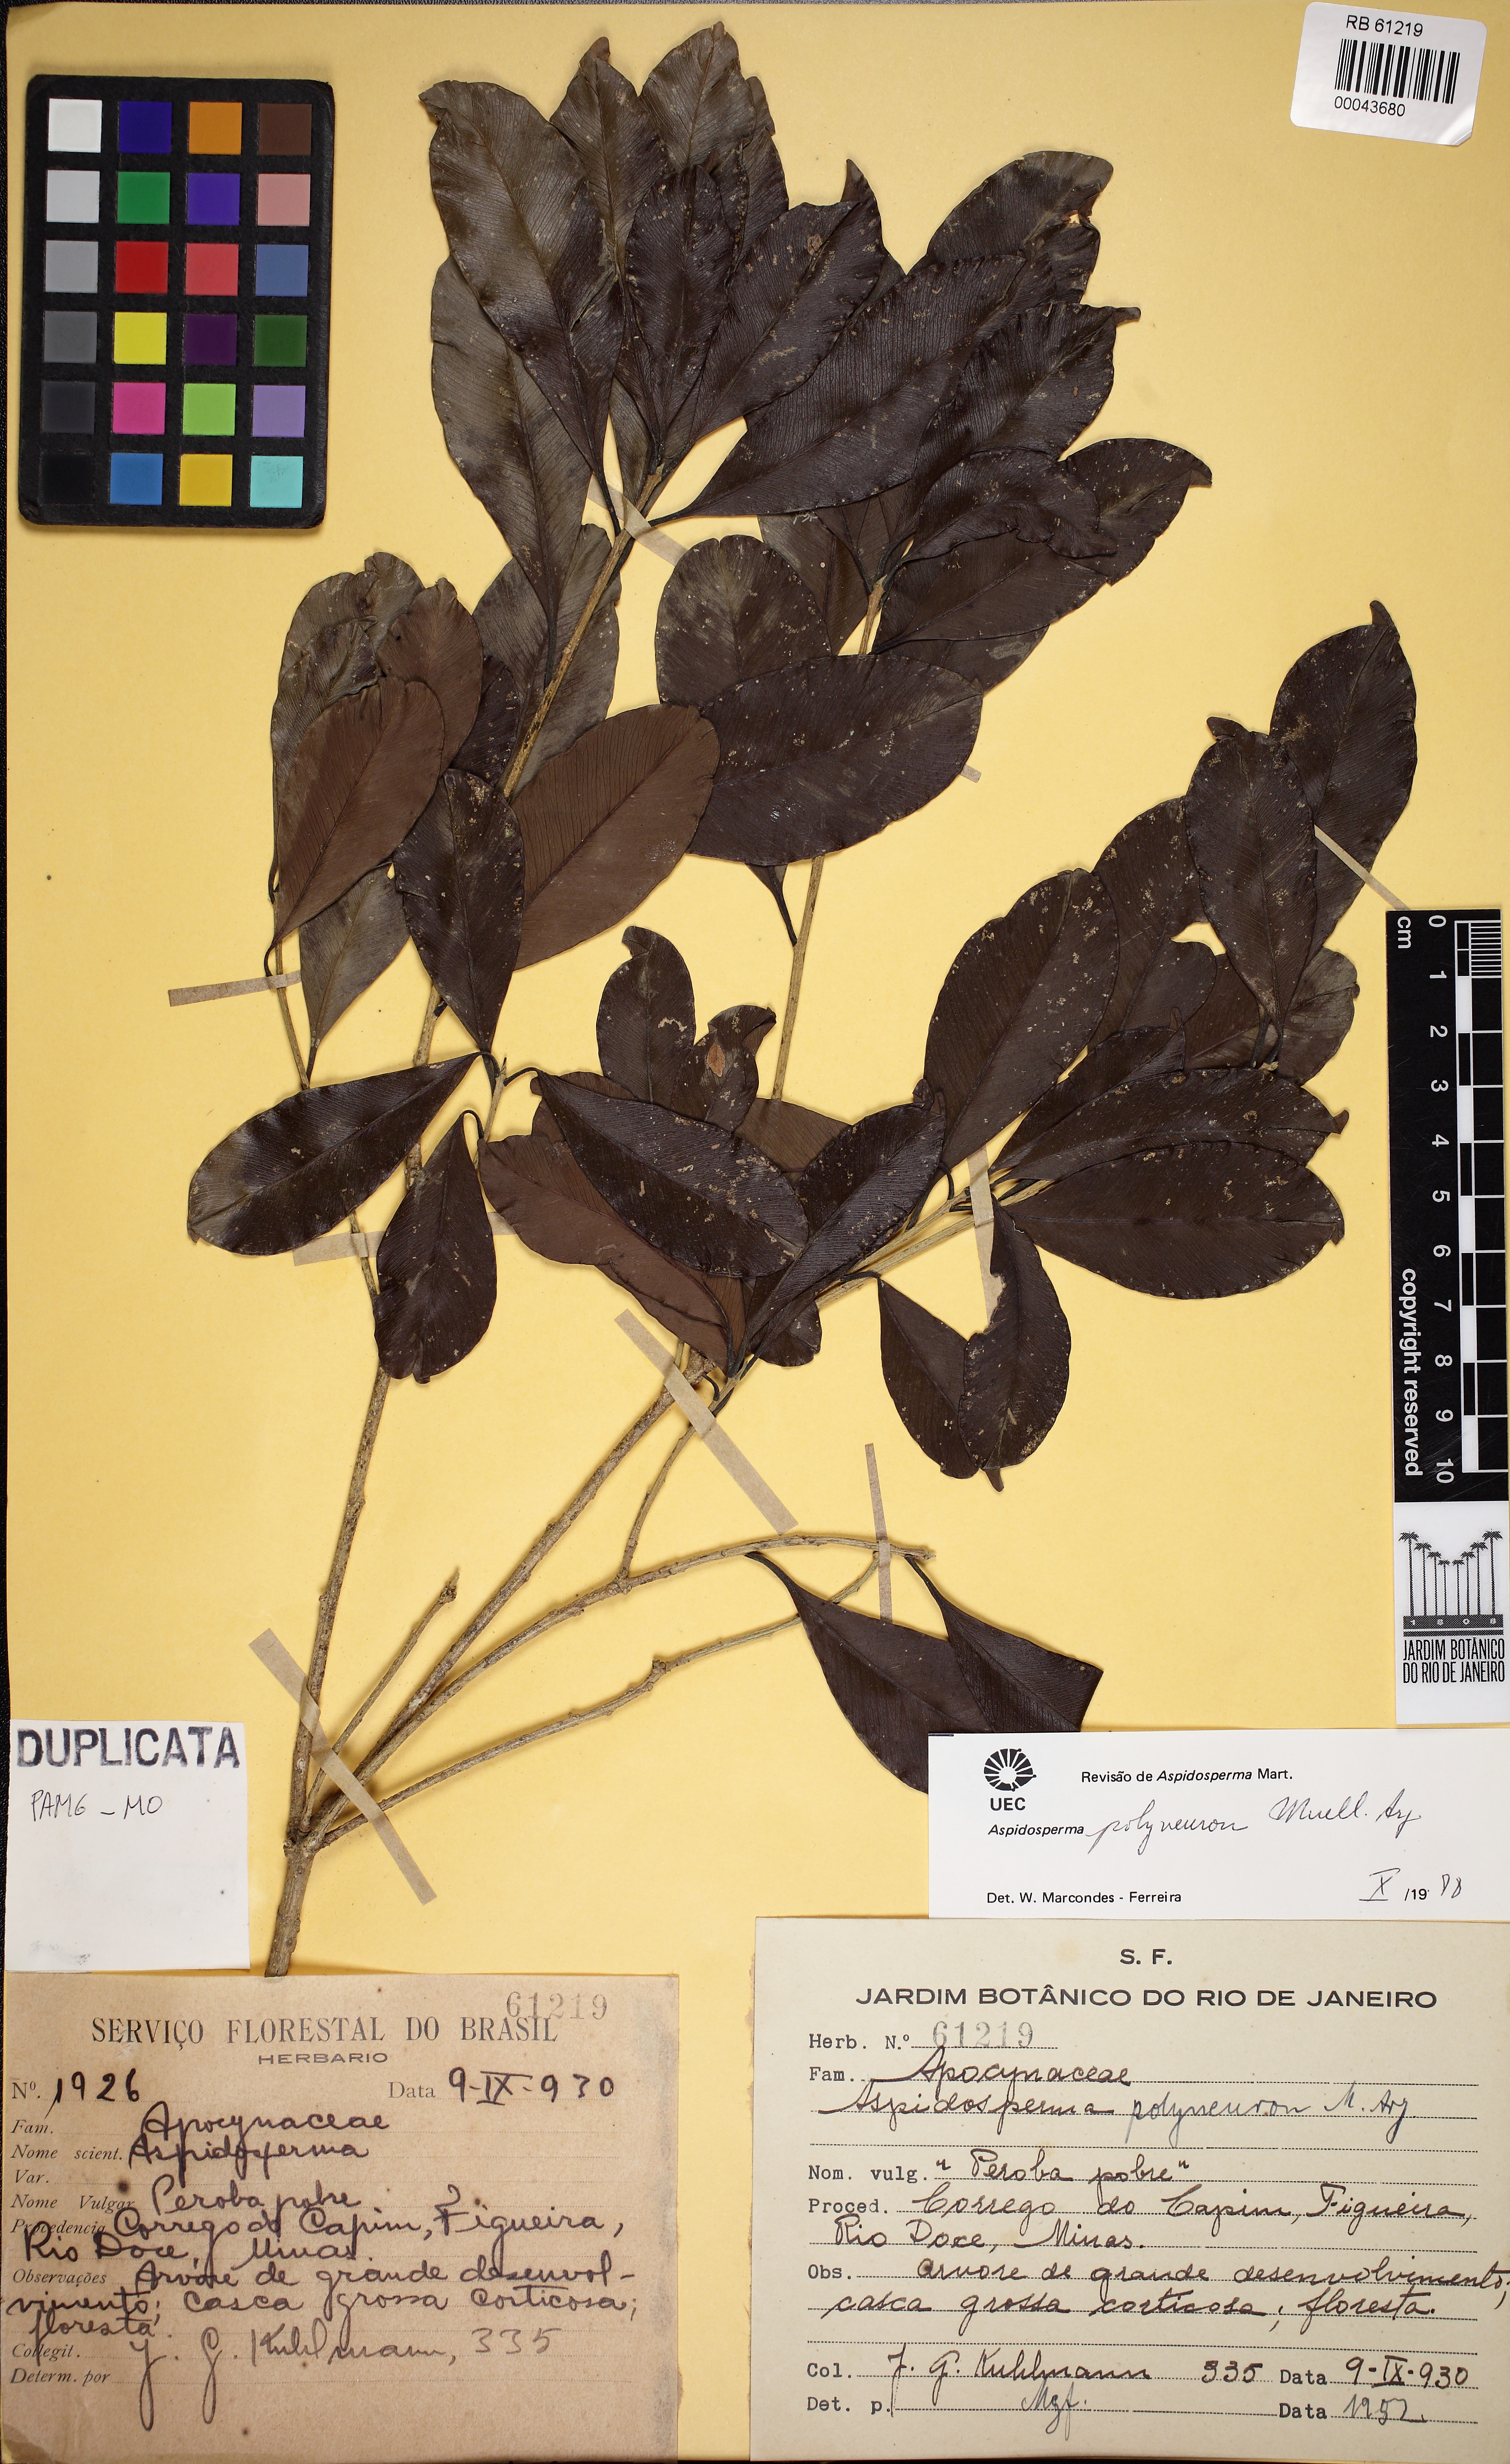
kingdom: Plantae
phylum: Tracheophyta
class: Magnoliopsida
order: Gentianales
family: Apocynaceae
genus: Aspidosperma
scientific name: Aspidosperma polyneuron
